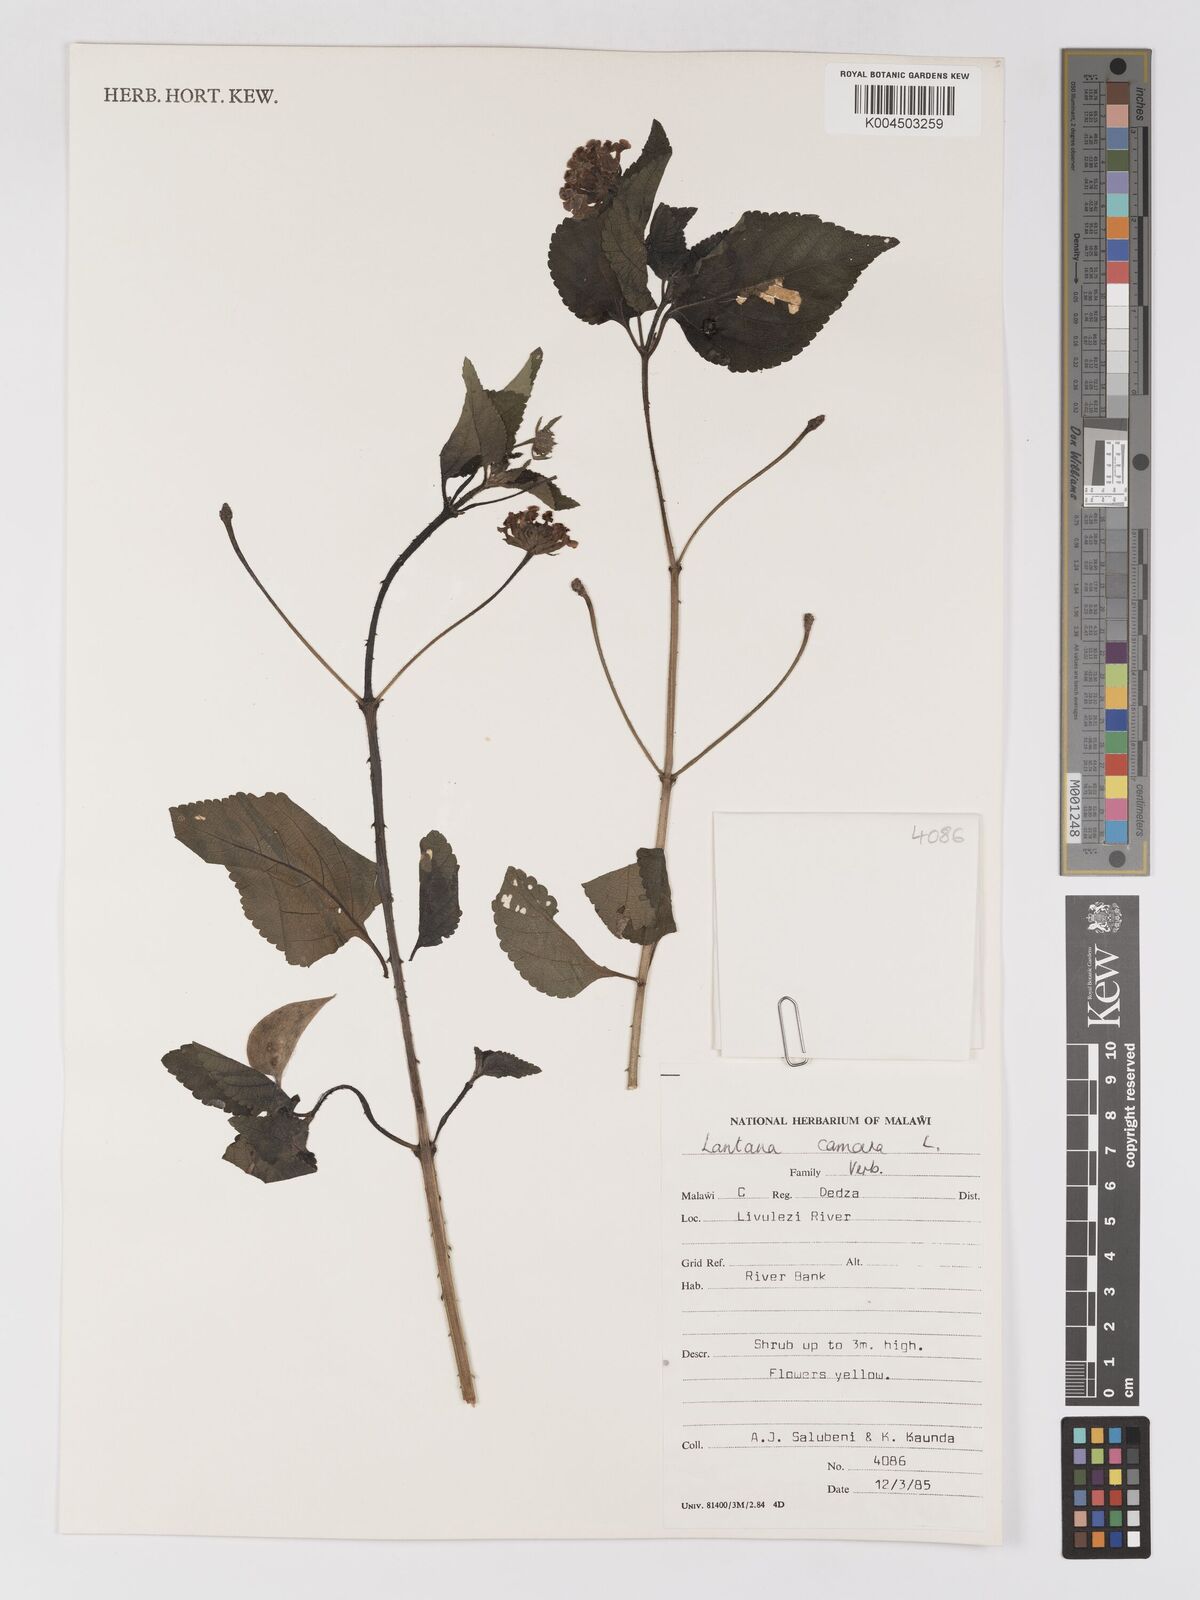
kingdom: Plantae
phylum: Tracheophyta
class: Magnoliopsida
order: Lamiales
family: Verbenaceae
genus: Lantana
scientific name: Lantana camara
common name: Lantana
